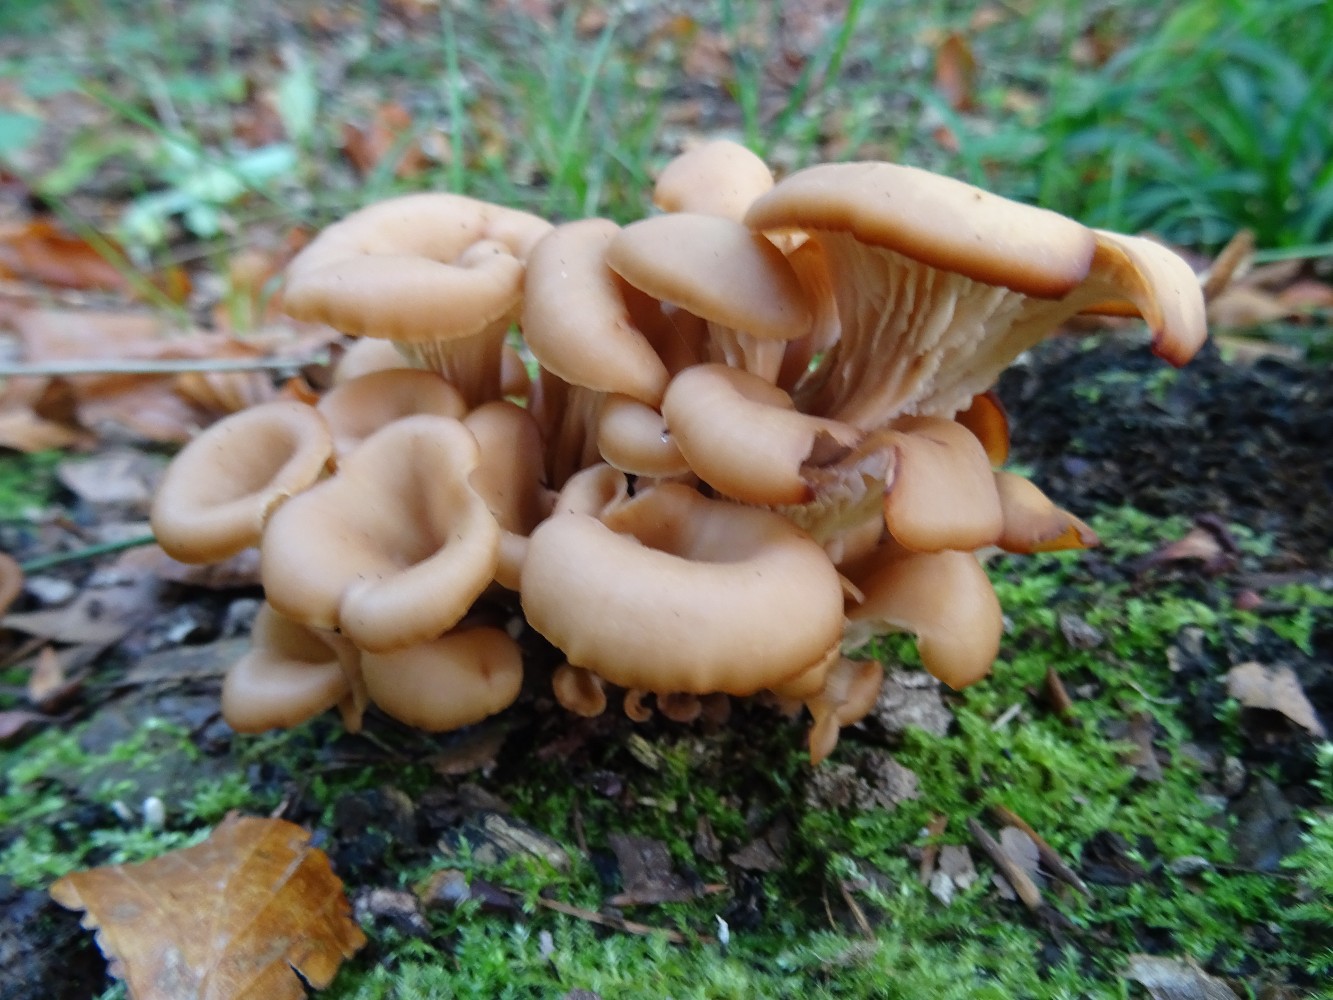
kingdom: Fungi
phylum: Basidiomycota
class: Agaricomycetes
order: Russulales
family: Auriscalpiaceae
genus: Lentinellus
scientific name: Lentinellus cochleatus
